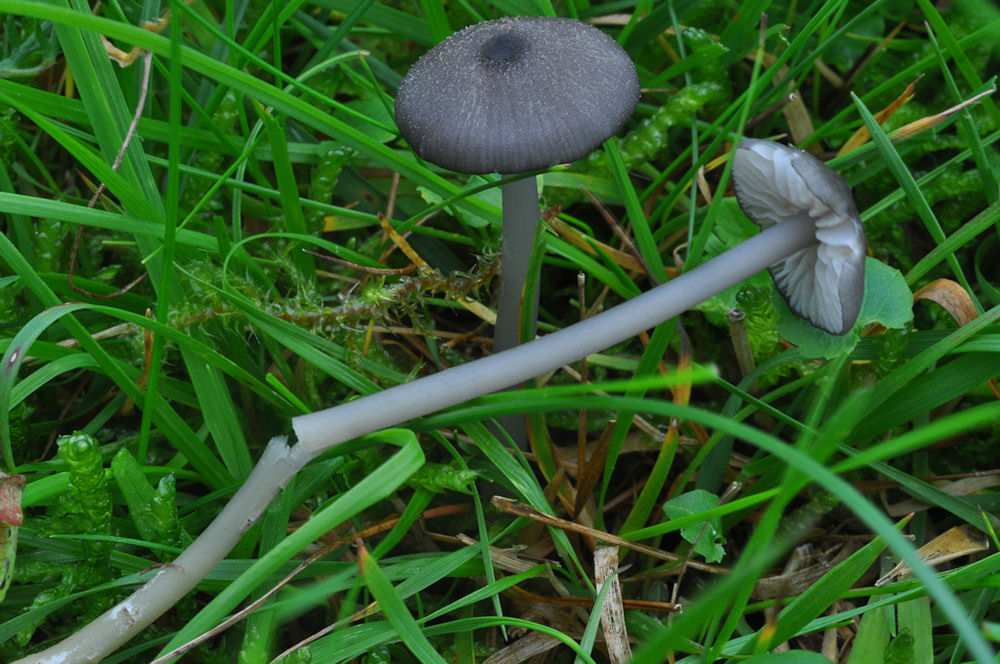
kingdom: Fungi
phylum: Basidiomycota
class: Agaricomycetes
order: Agaricales
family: Entolomataceae
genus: Entoloma
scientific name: Entoloma
